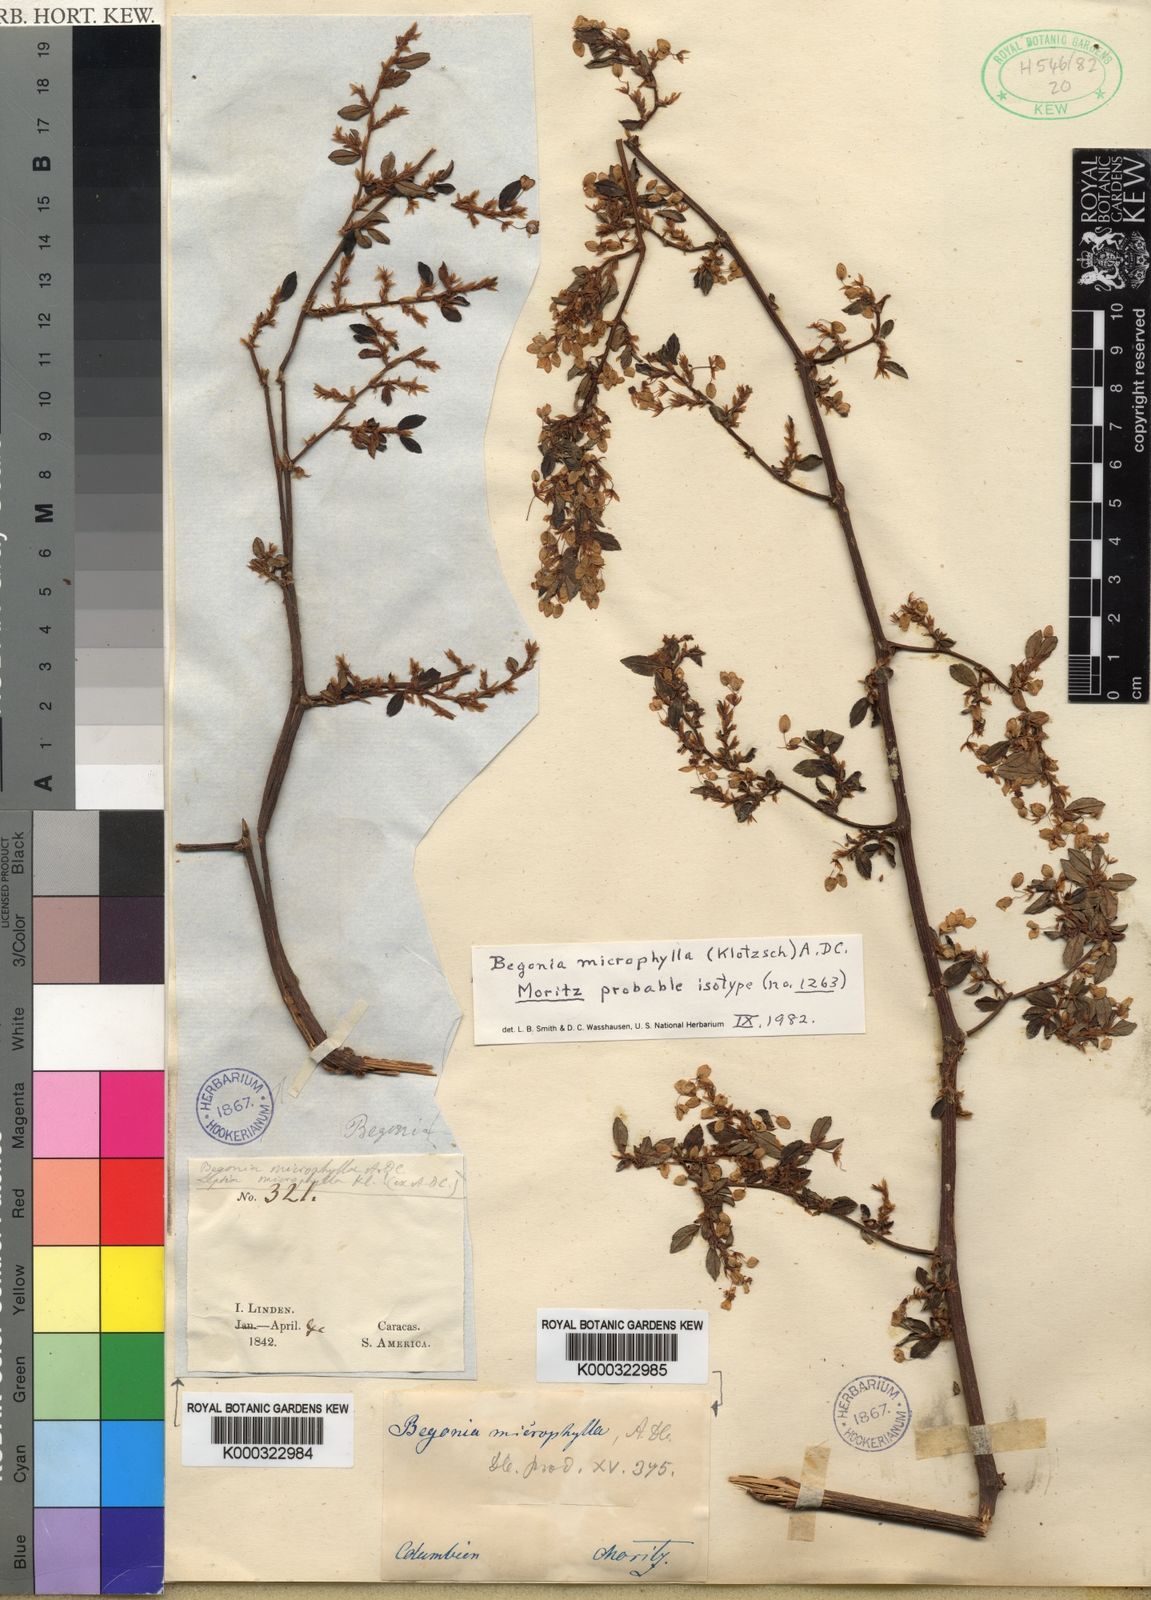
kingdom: Plantae
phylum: Tracheophyta
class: Magnoliopsida
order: Cucurbitales
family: Begoniaceae
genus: Begonia
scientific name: Begonia foliosa
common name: Fern begonia
